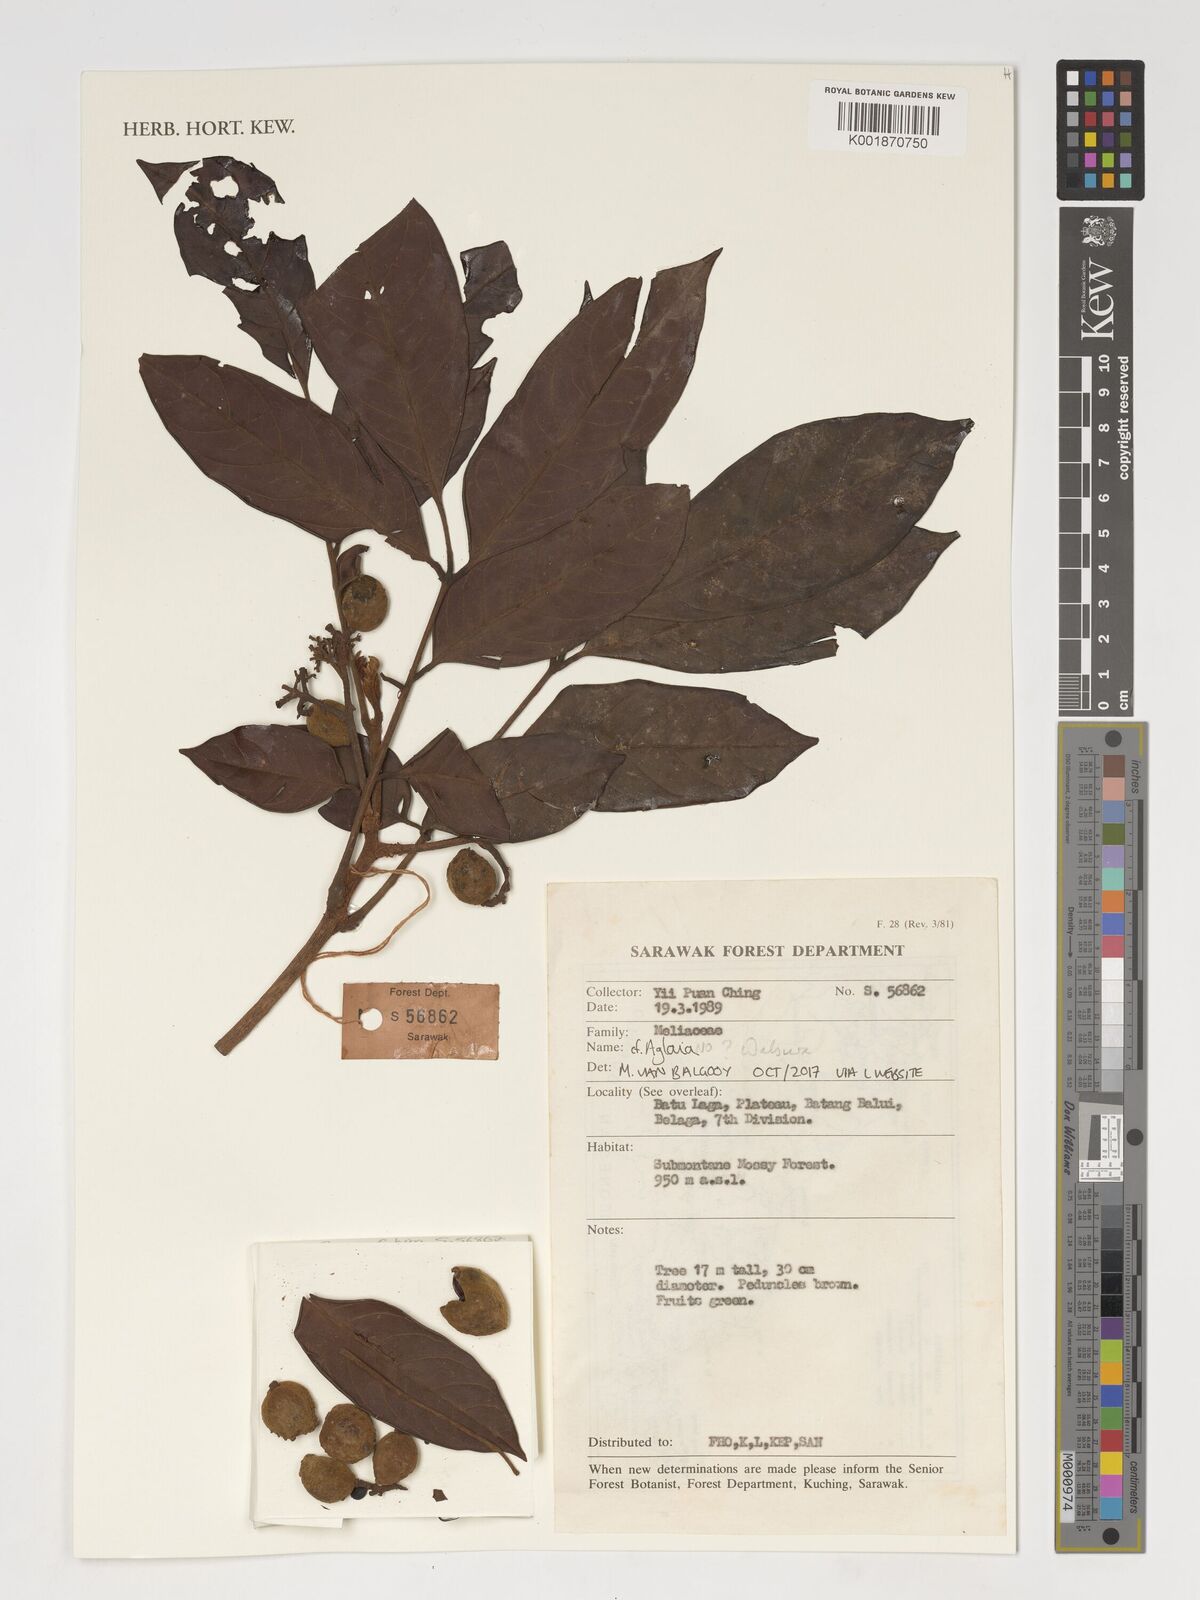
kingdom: Plantae
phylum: Tracheophyta
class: Magnoliopsida
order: Sapindales
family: Meliaceae
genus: Walsura
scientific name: Walsura
